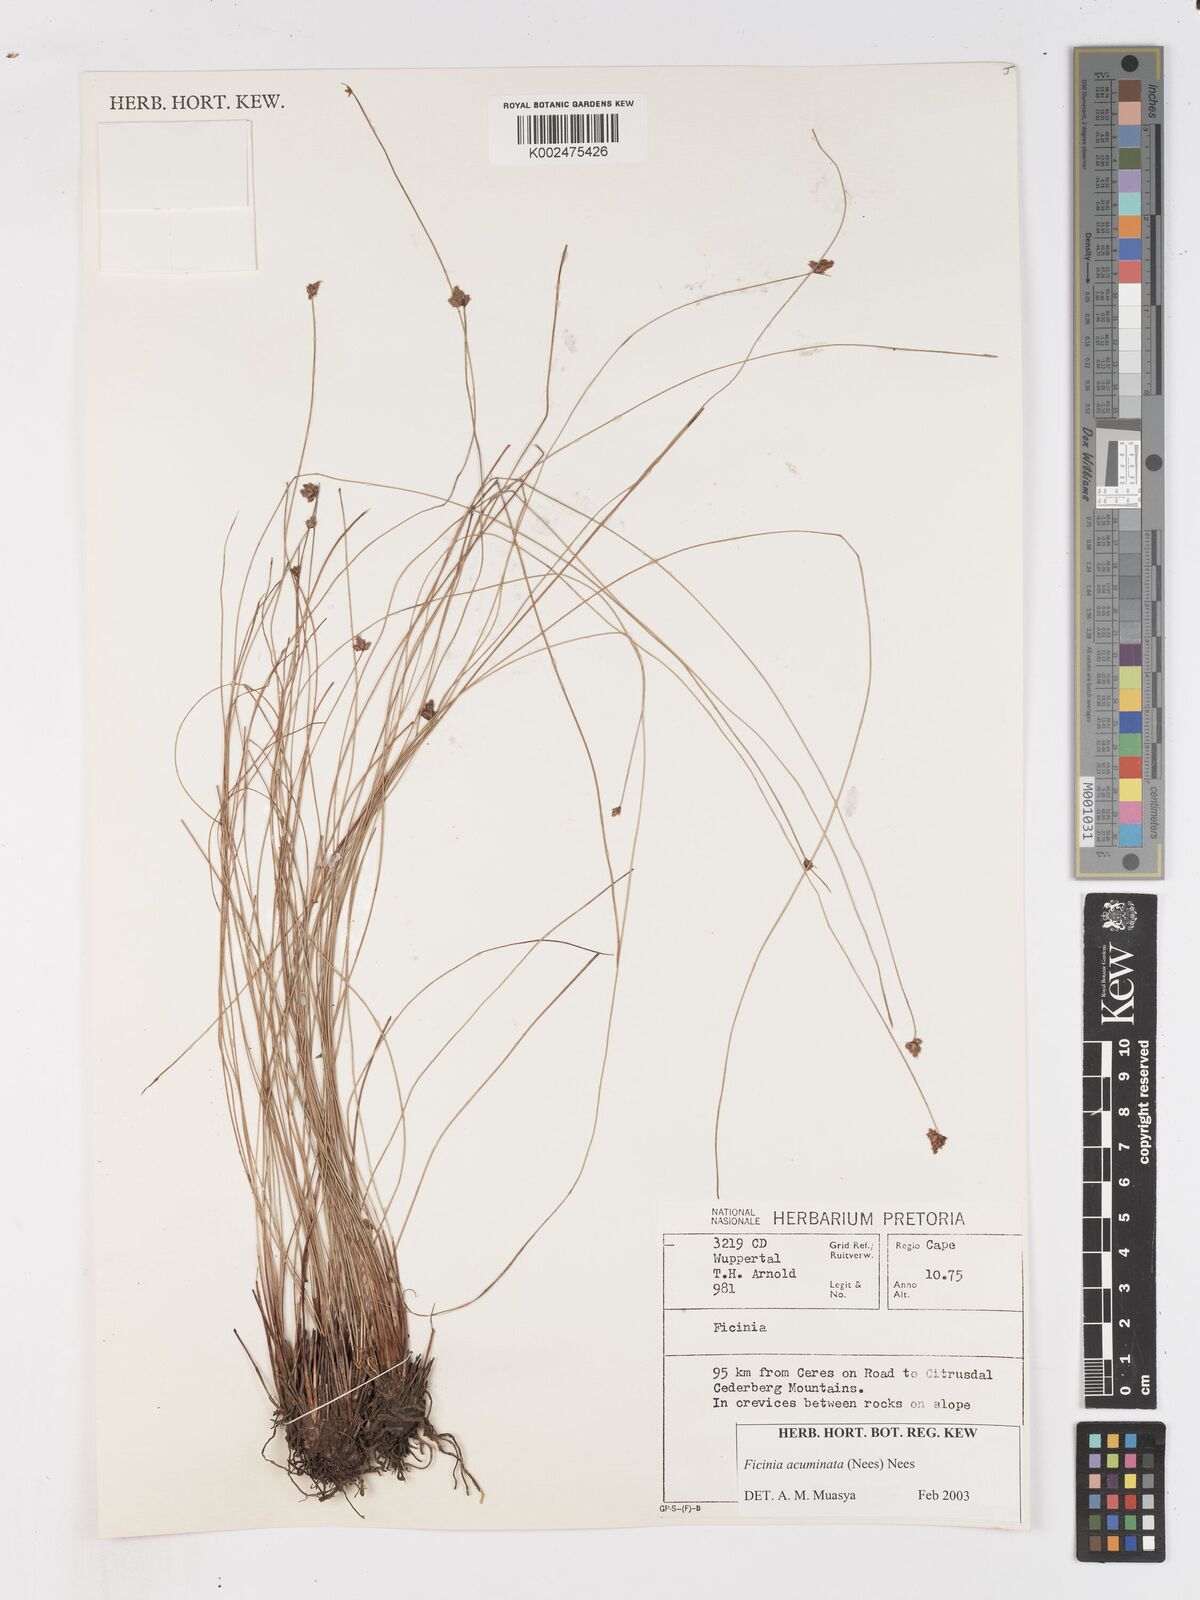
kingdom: Plantae
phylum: Tracheophyta
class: Liliopsida
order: Poales
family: Cyperaceae
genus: Ficinia
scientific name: Ficinia acuminata
